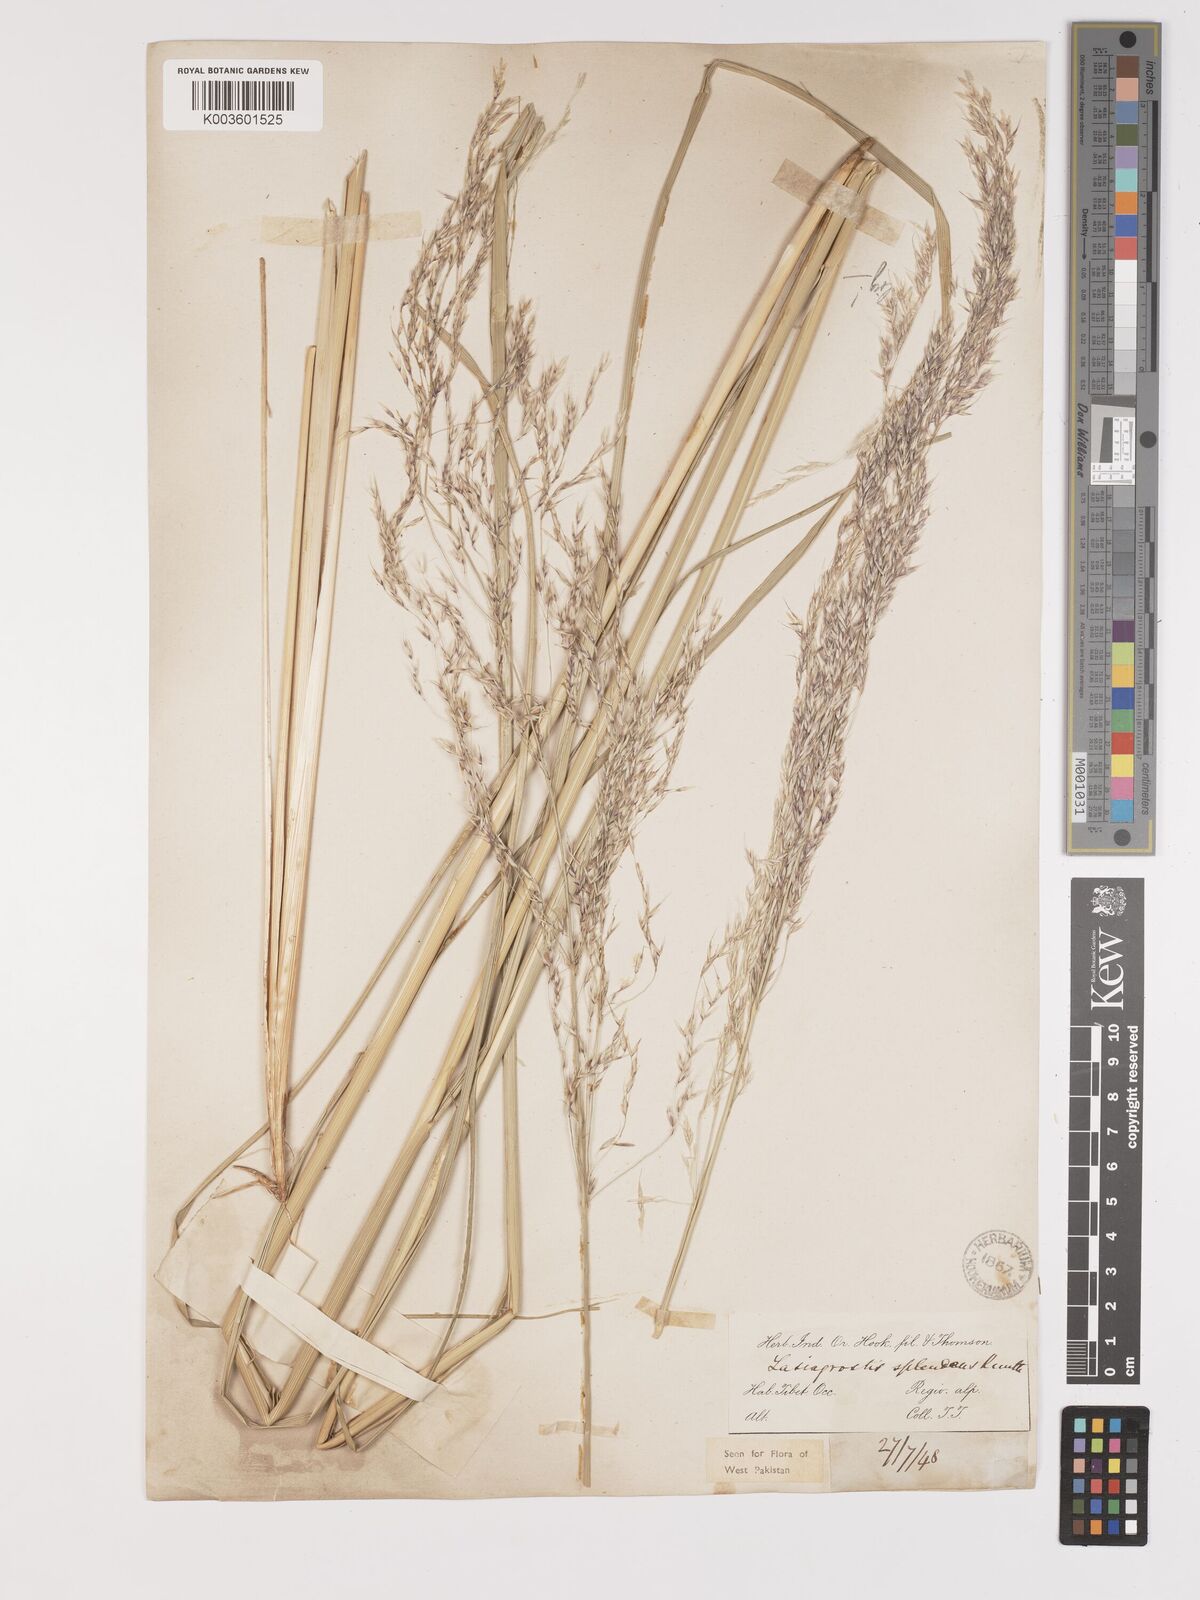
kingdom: Plantae
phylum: Tracheophyta
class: Liliopsida
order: Poales
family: Poaceae
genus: Neotrinia
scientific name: Neotrinia splendens
